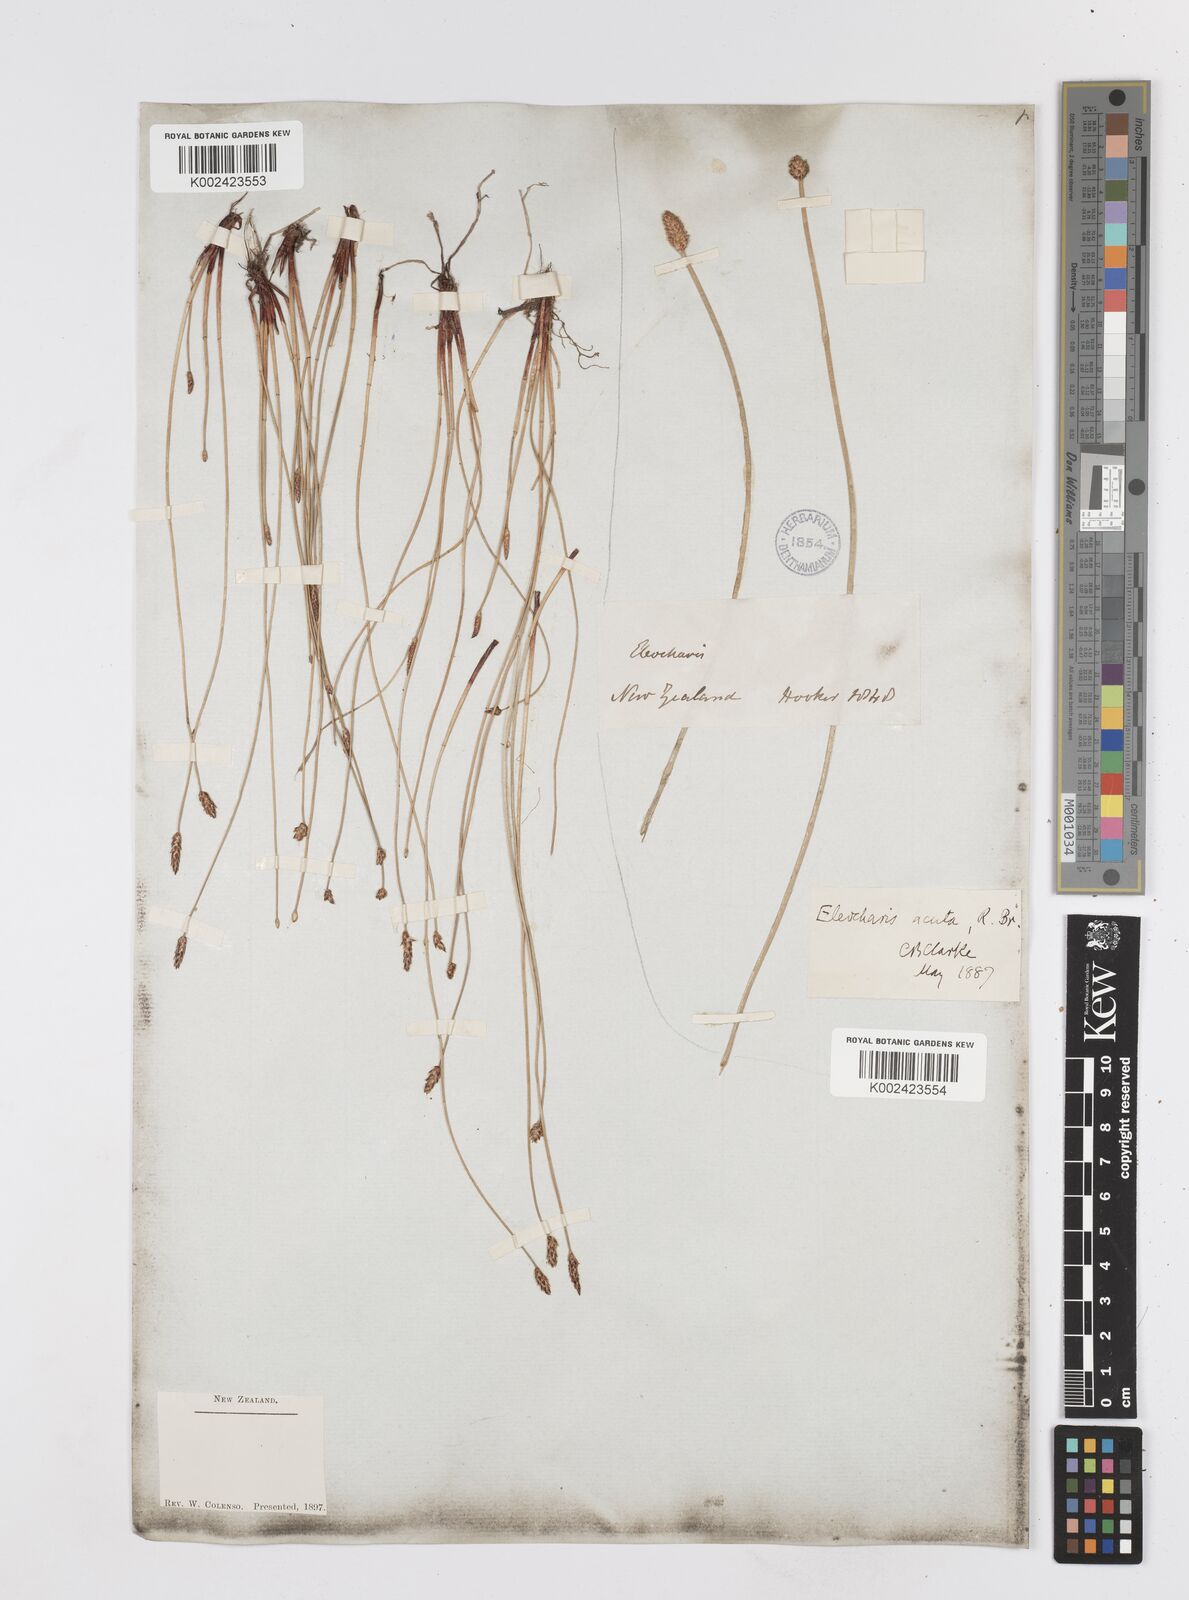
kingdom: Plantae
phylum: Tracheophyta
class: Liliopsida
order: Poales
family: Cyperaceae
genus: Eleocharis
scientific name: Eleocharis acuta
